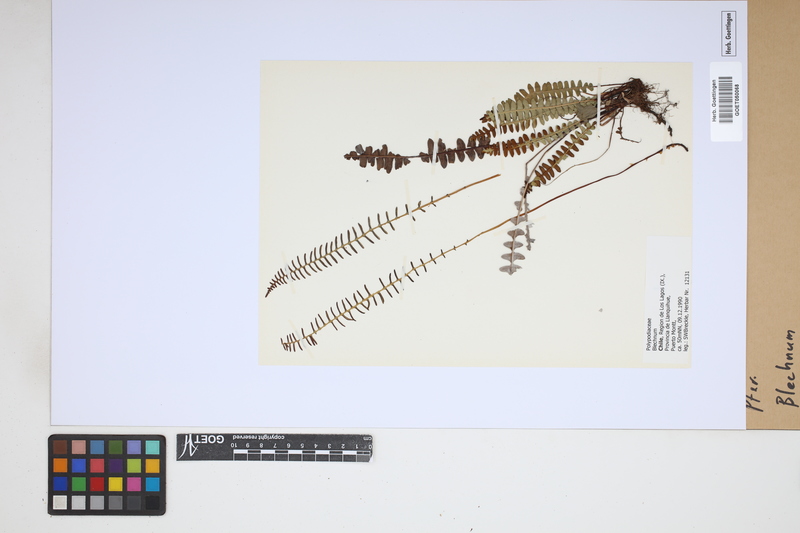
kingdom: Plantae
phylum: Tracheophyta
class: Polypodiopsida
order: Polypodiales
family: Blechnaceae
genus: Blechnum
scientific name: Blechnum
